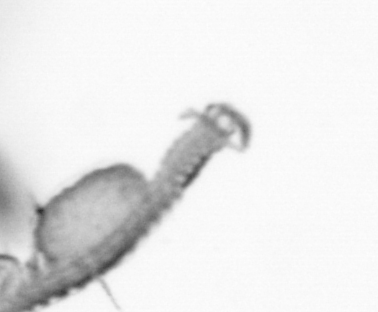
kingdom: Animalia
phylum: Annelida
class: Polychaeta
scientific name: Polychaeta
